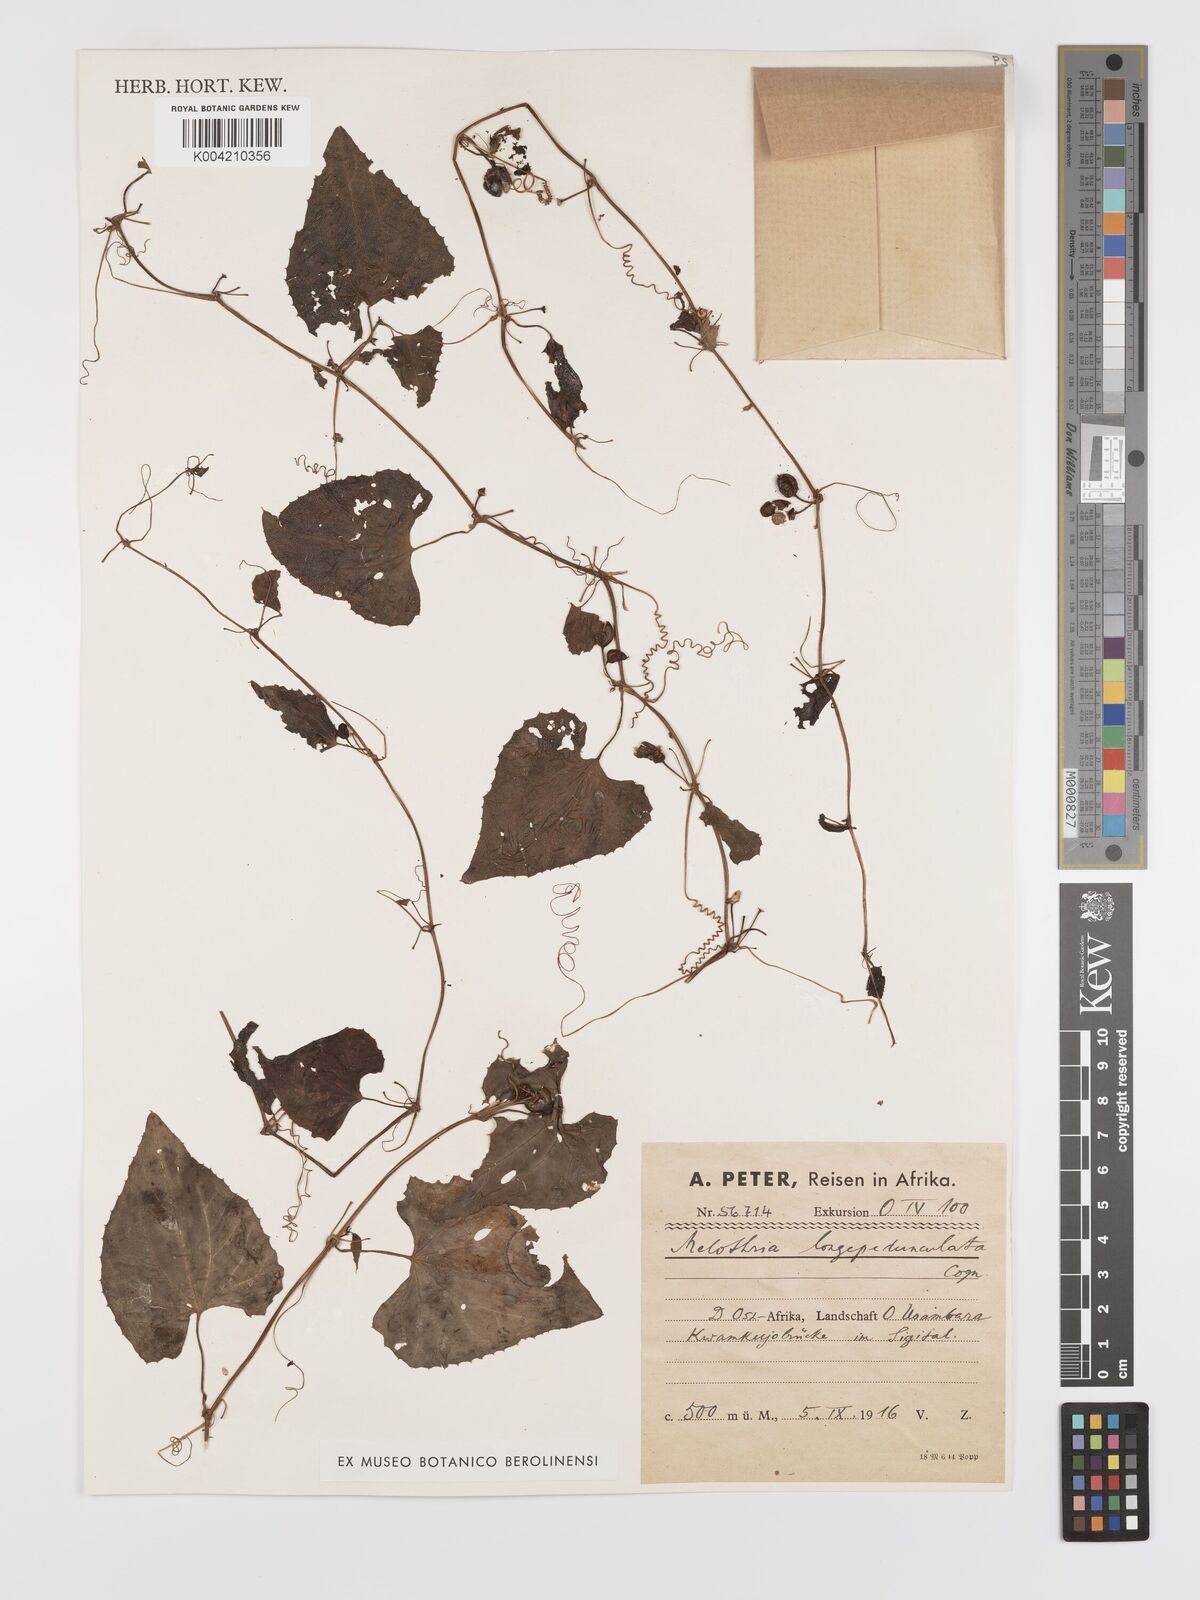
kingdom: Plantae
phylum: Tracheophyta
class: Magnoliopsida
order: Cucurbitales
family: Cucurbitaceae
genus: Zehneria
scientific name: Zehneria emirnensis
